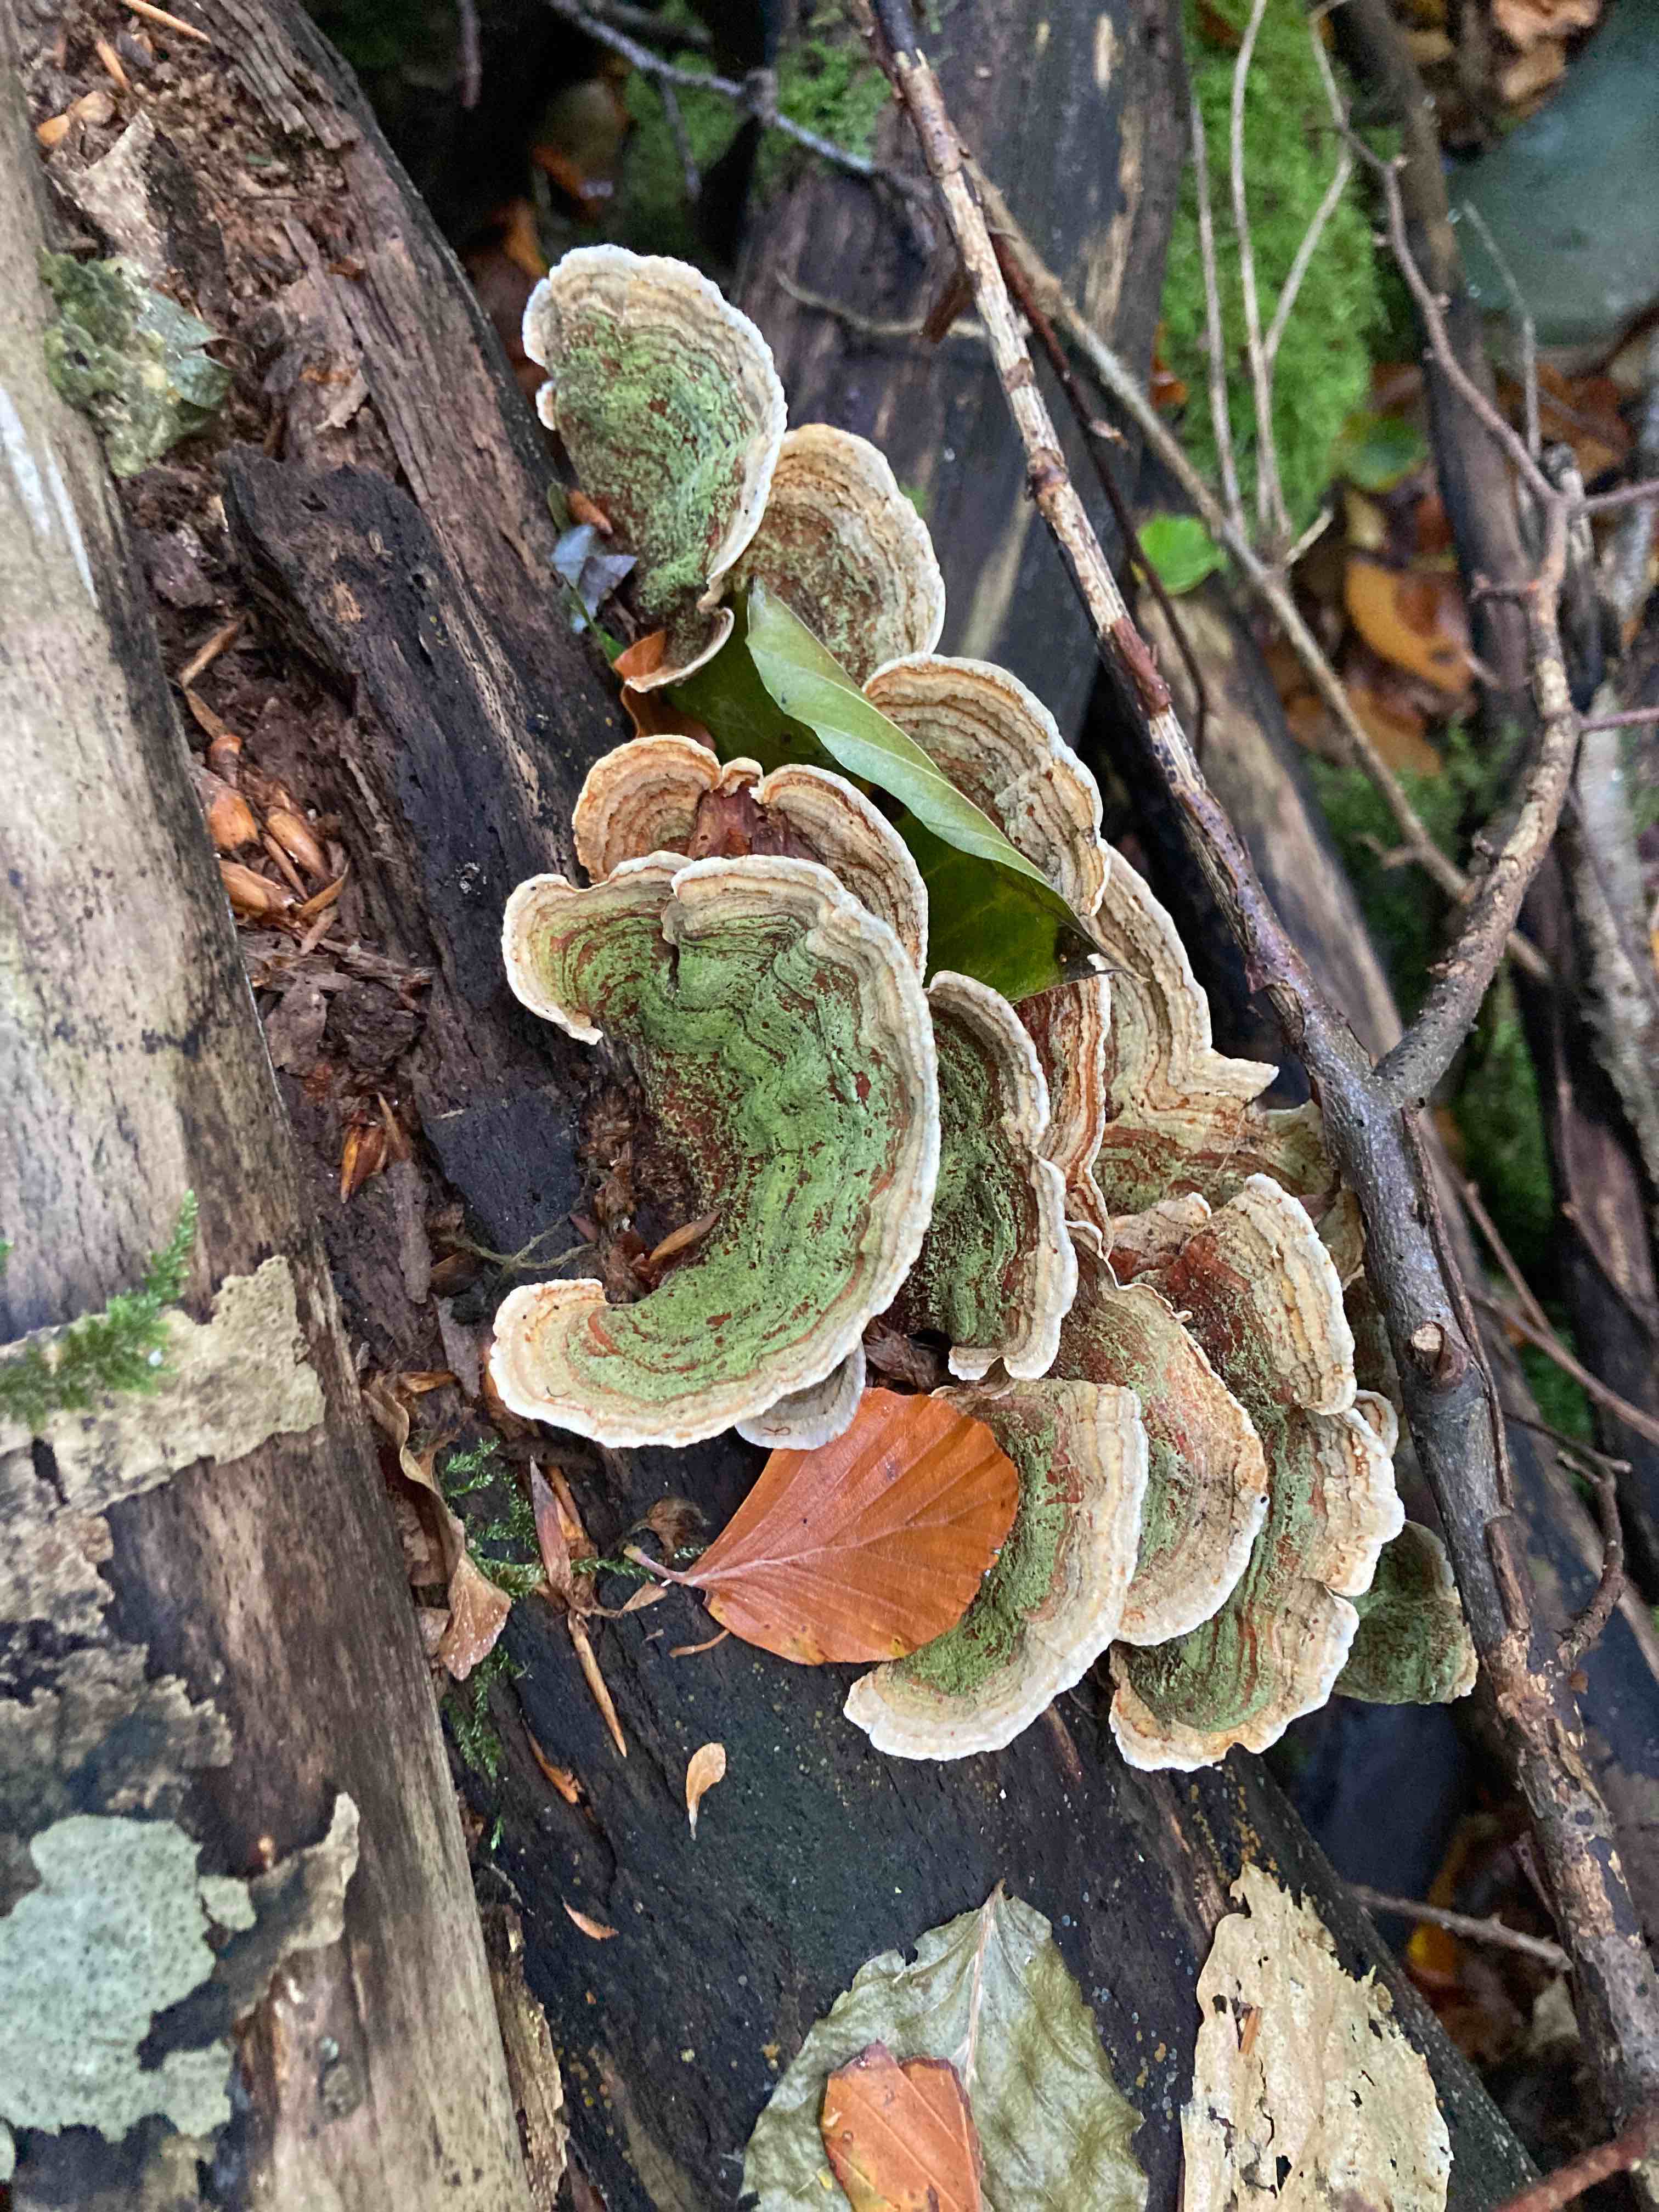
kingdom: Fungi
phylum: Basidiomycota
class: Agaricomycetes
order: Russulales
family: Stereaceae
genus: Stereum
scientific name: Stereum subtomentosum
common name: smuk lædersvamp
